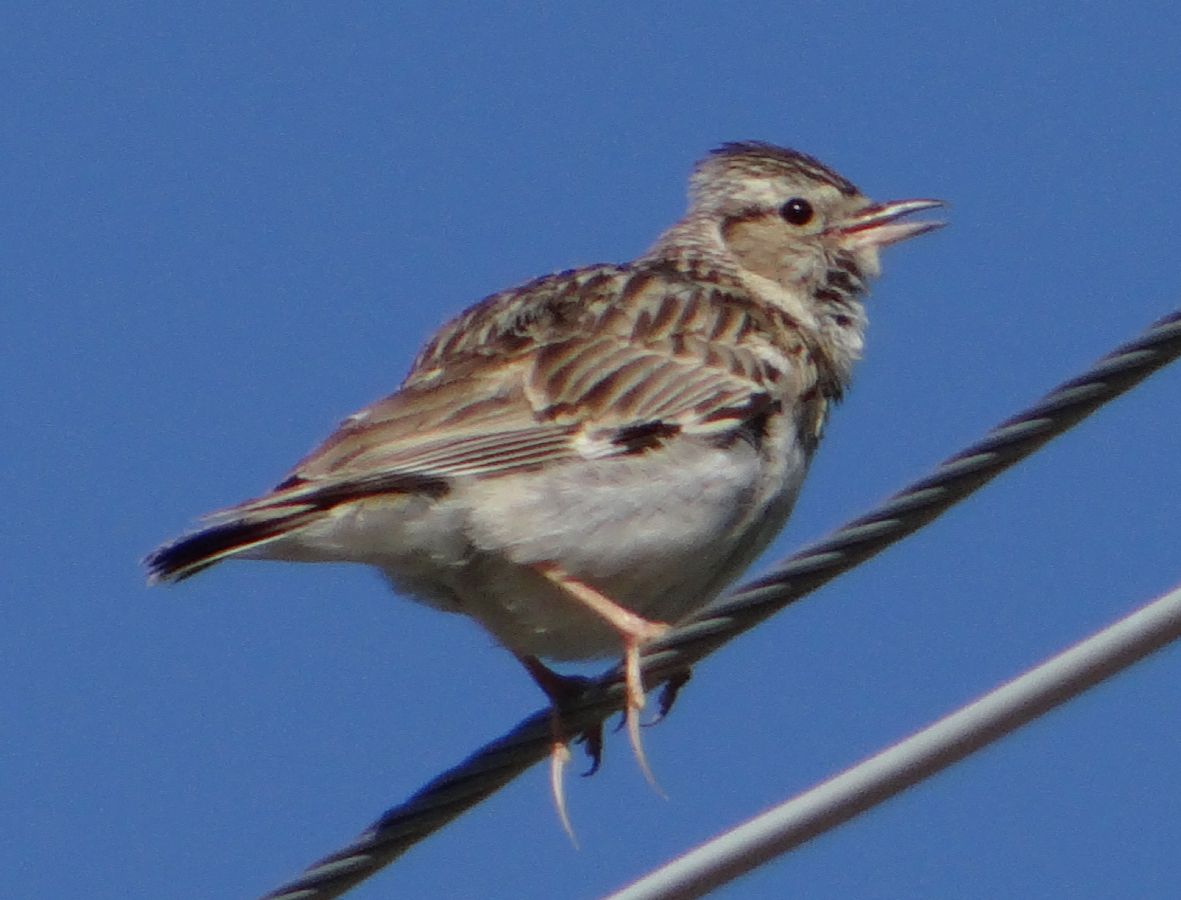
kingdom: Animalia
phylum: Chordata
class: Aves
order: Passeriformes
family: Alaudidae
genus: Lullula
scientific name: Lullula arborea
